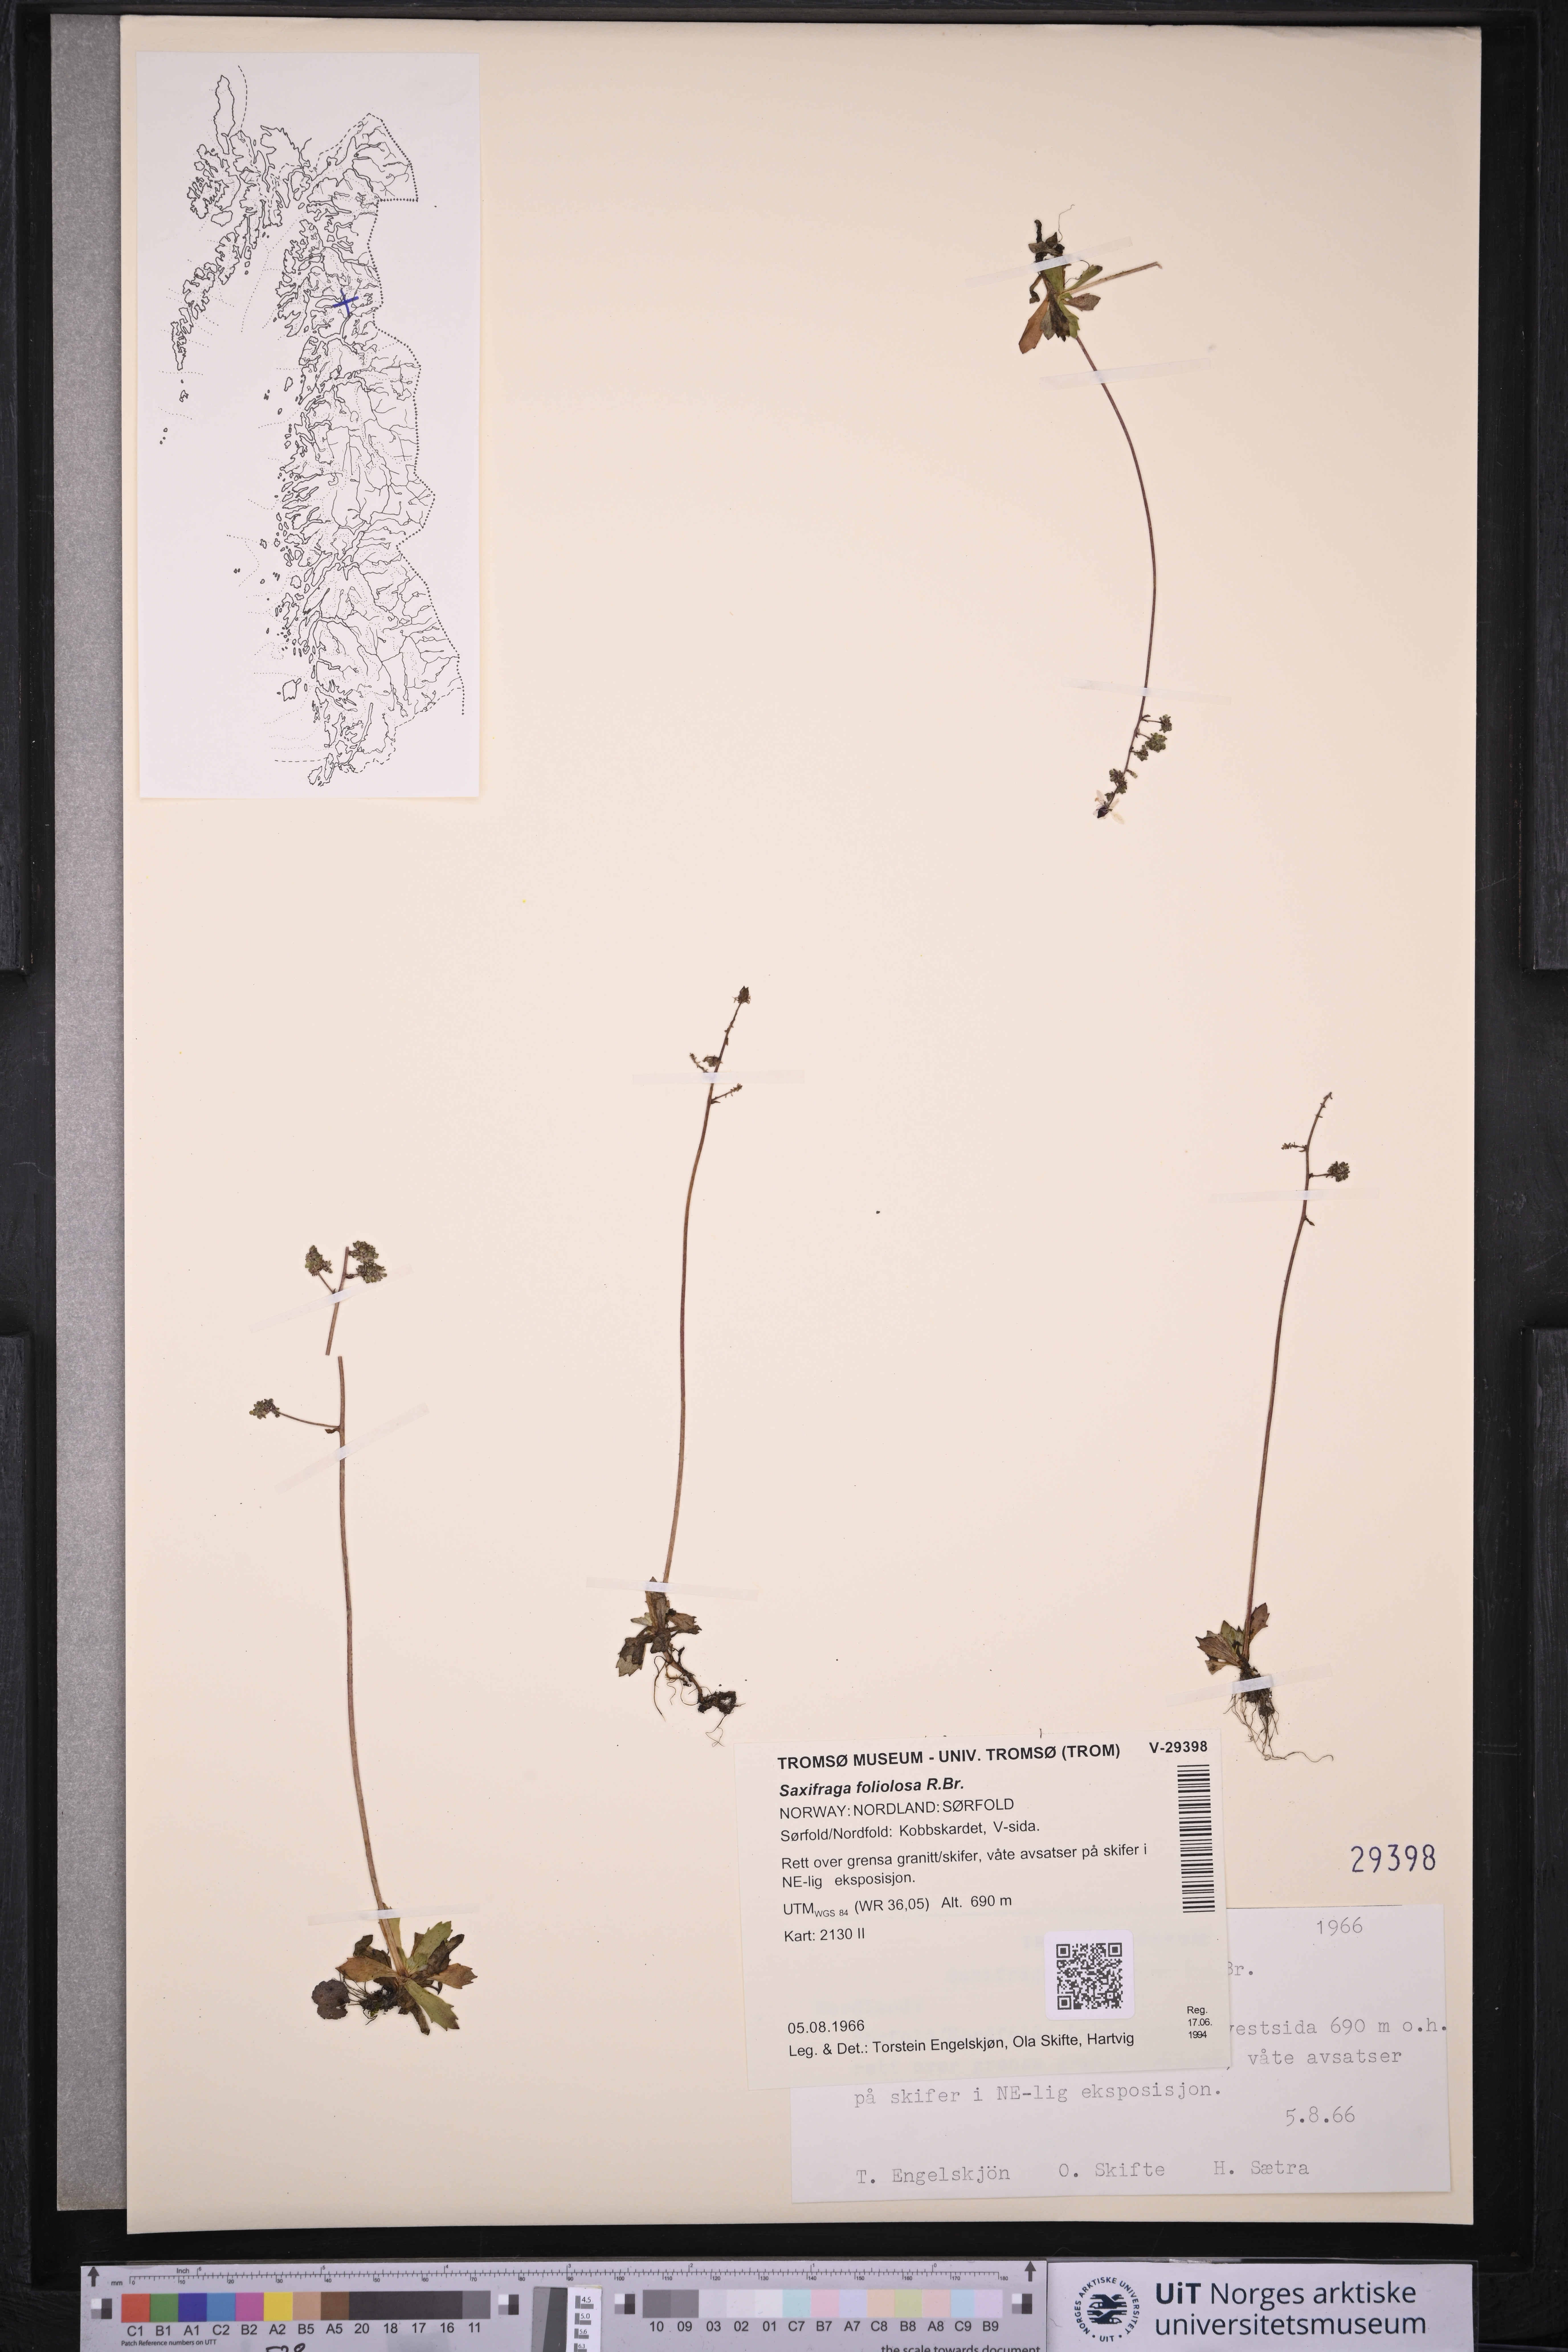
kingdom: Plantae
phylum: Tracheophyta
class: Magnoliopsida
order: Saxifragales
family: Saxifragaceae
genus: Micranthes
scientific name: Micranthes foliolosa
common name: Leafystem saxifrage
